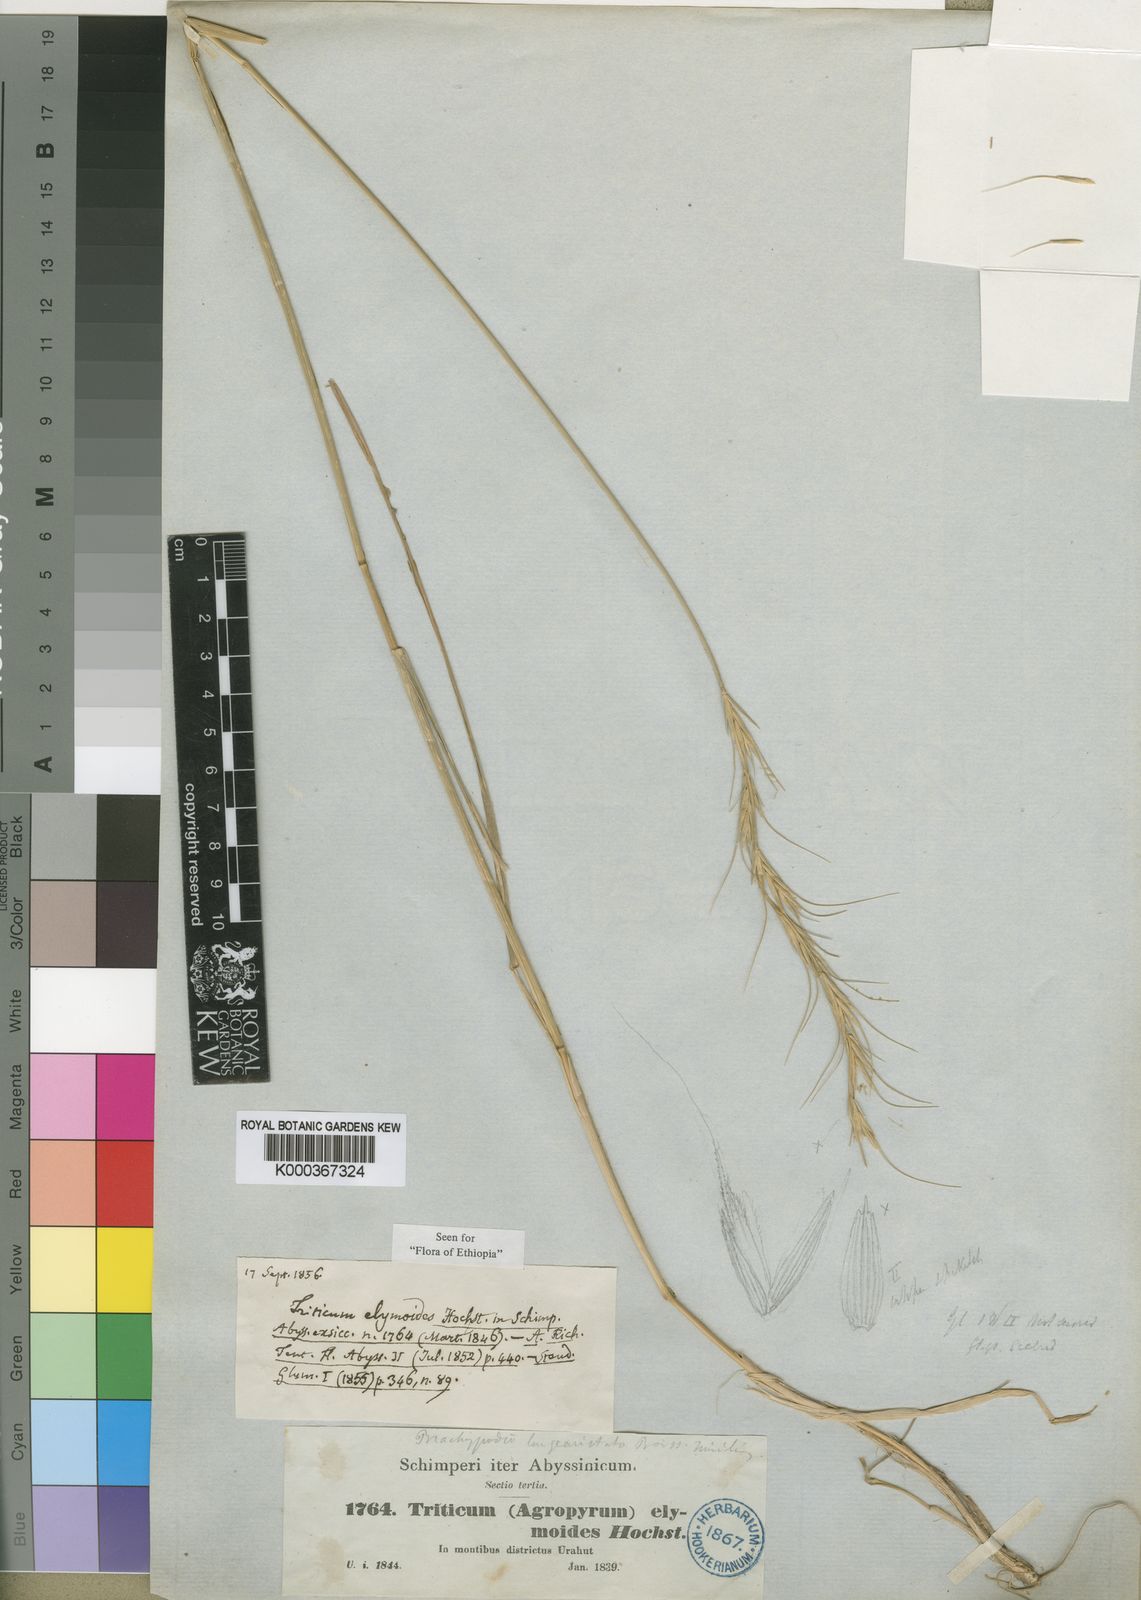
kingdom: Plantae
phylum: Tracheophyta
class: Liliopsida
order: Poales
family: Poaceae
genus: Elymus
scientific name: Elymus
